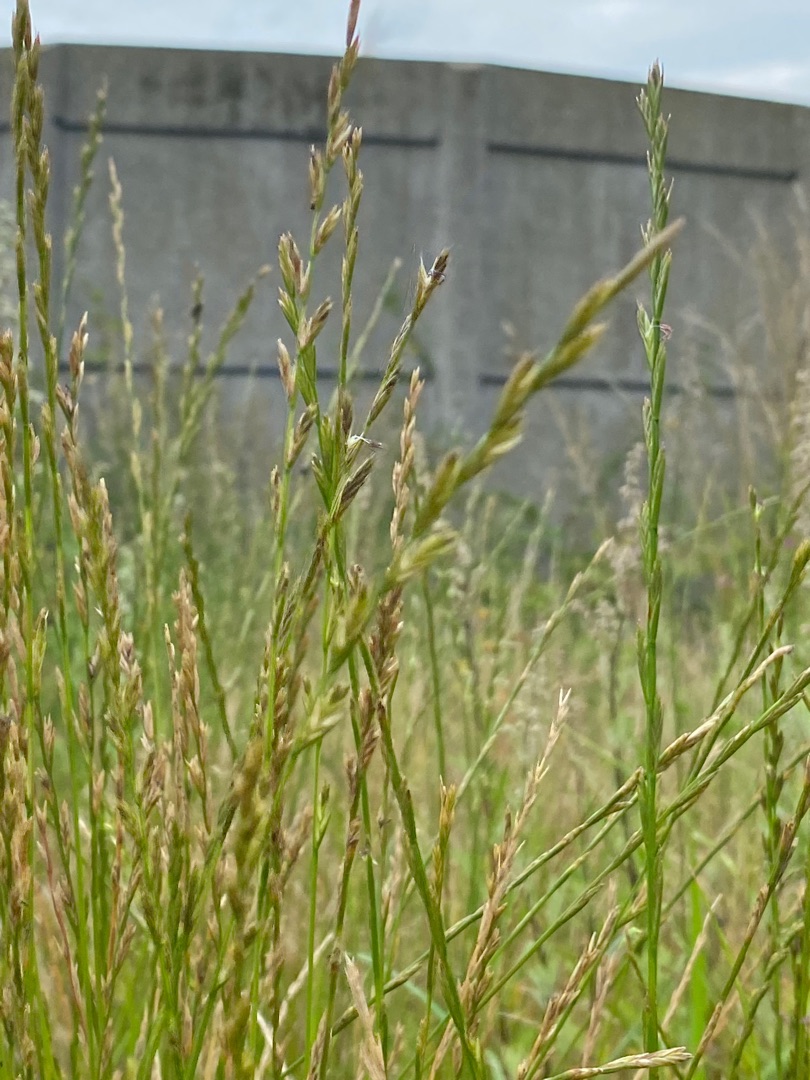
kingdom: Plantae
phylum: Tracheophyta
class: Liliopsida
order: Poales
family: Poaceae
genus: Lolium
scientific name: Lolium perenne
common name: Almindelig rajgræs
